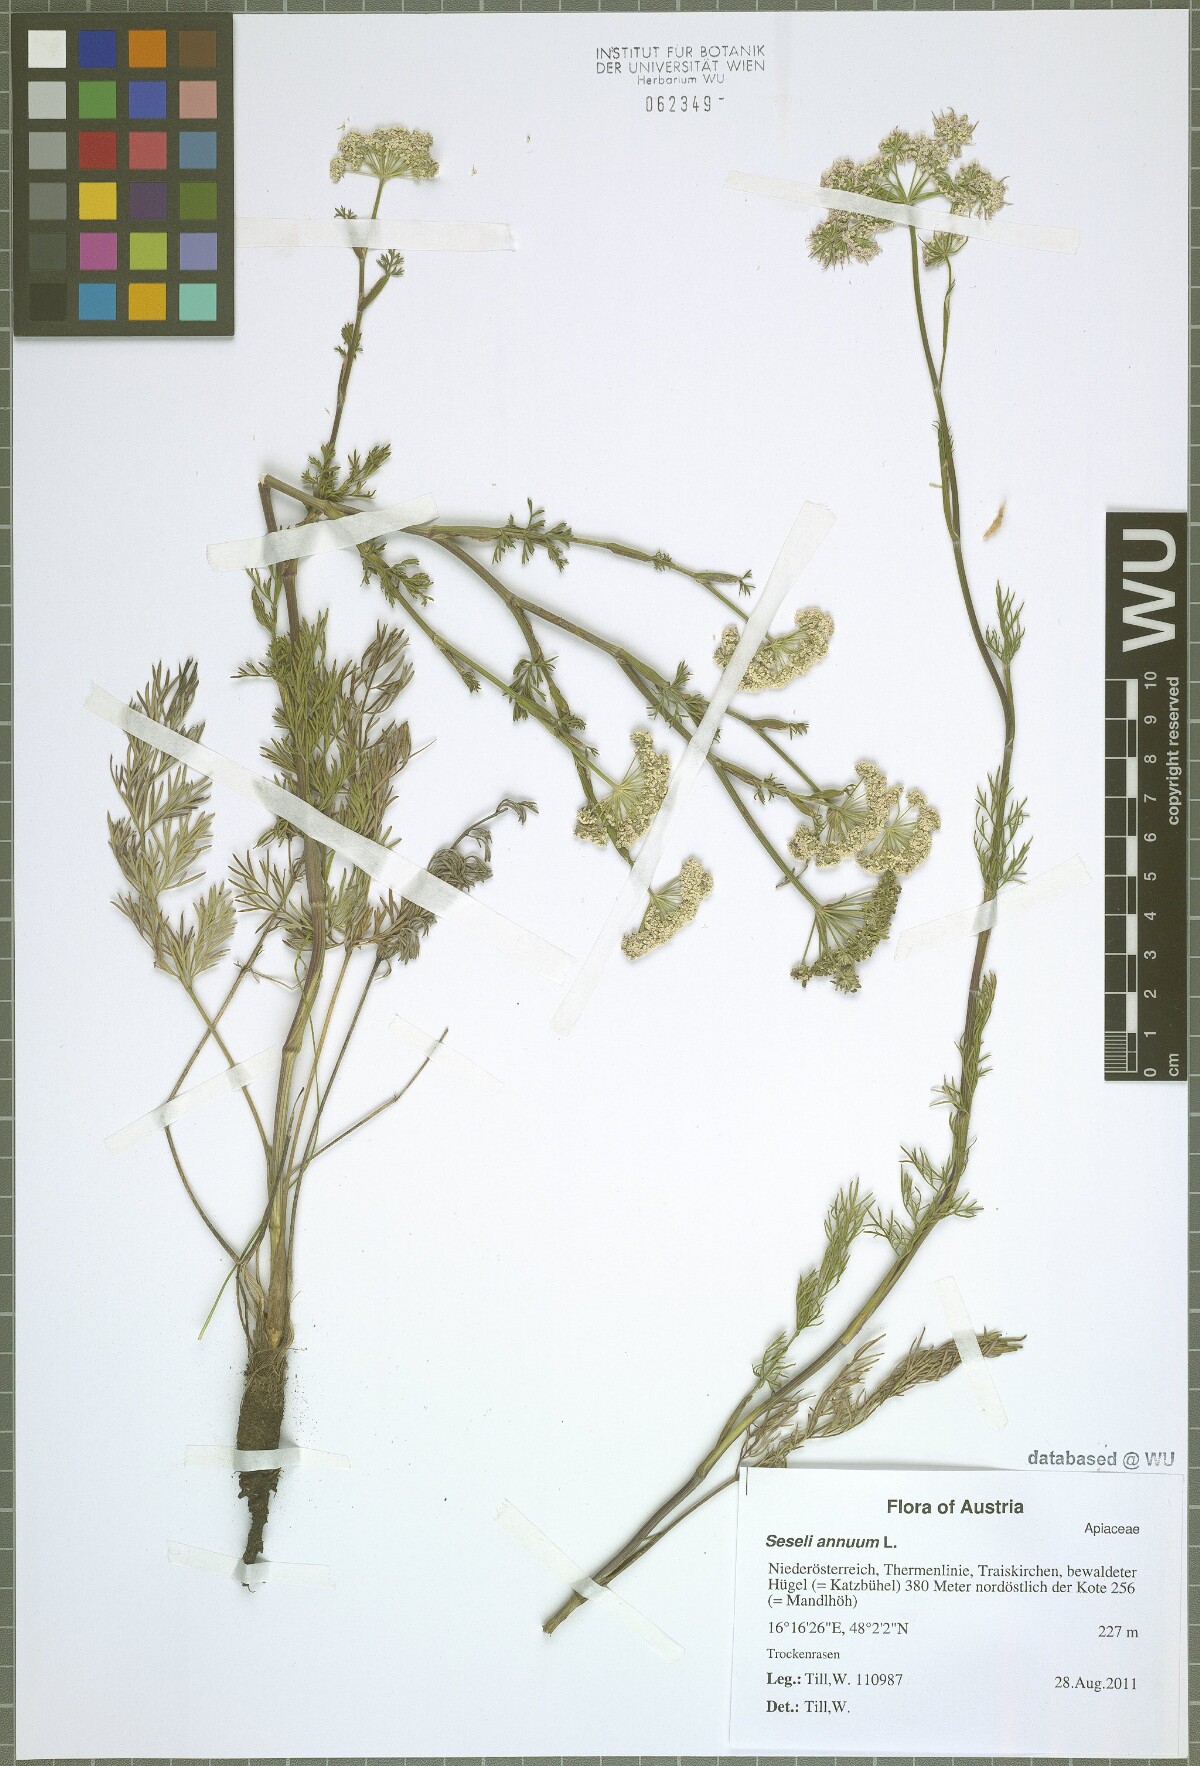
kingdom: Plantae
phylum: Tracheophyta
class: Magnoliopsida
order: Apiales
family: Apiaceae
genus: Seseli
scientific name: Seseli annuum
